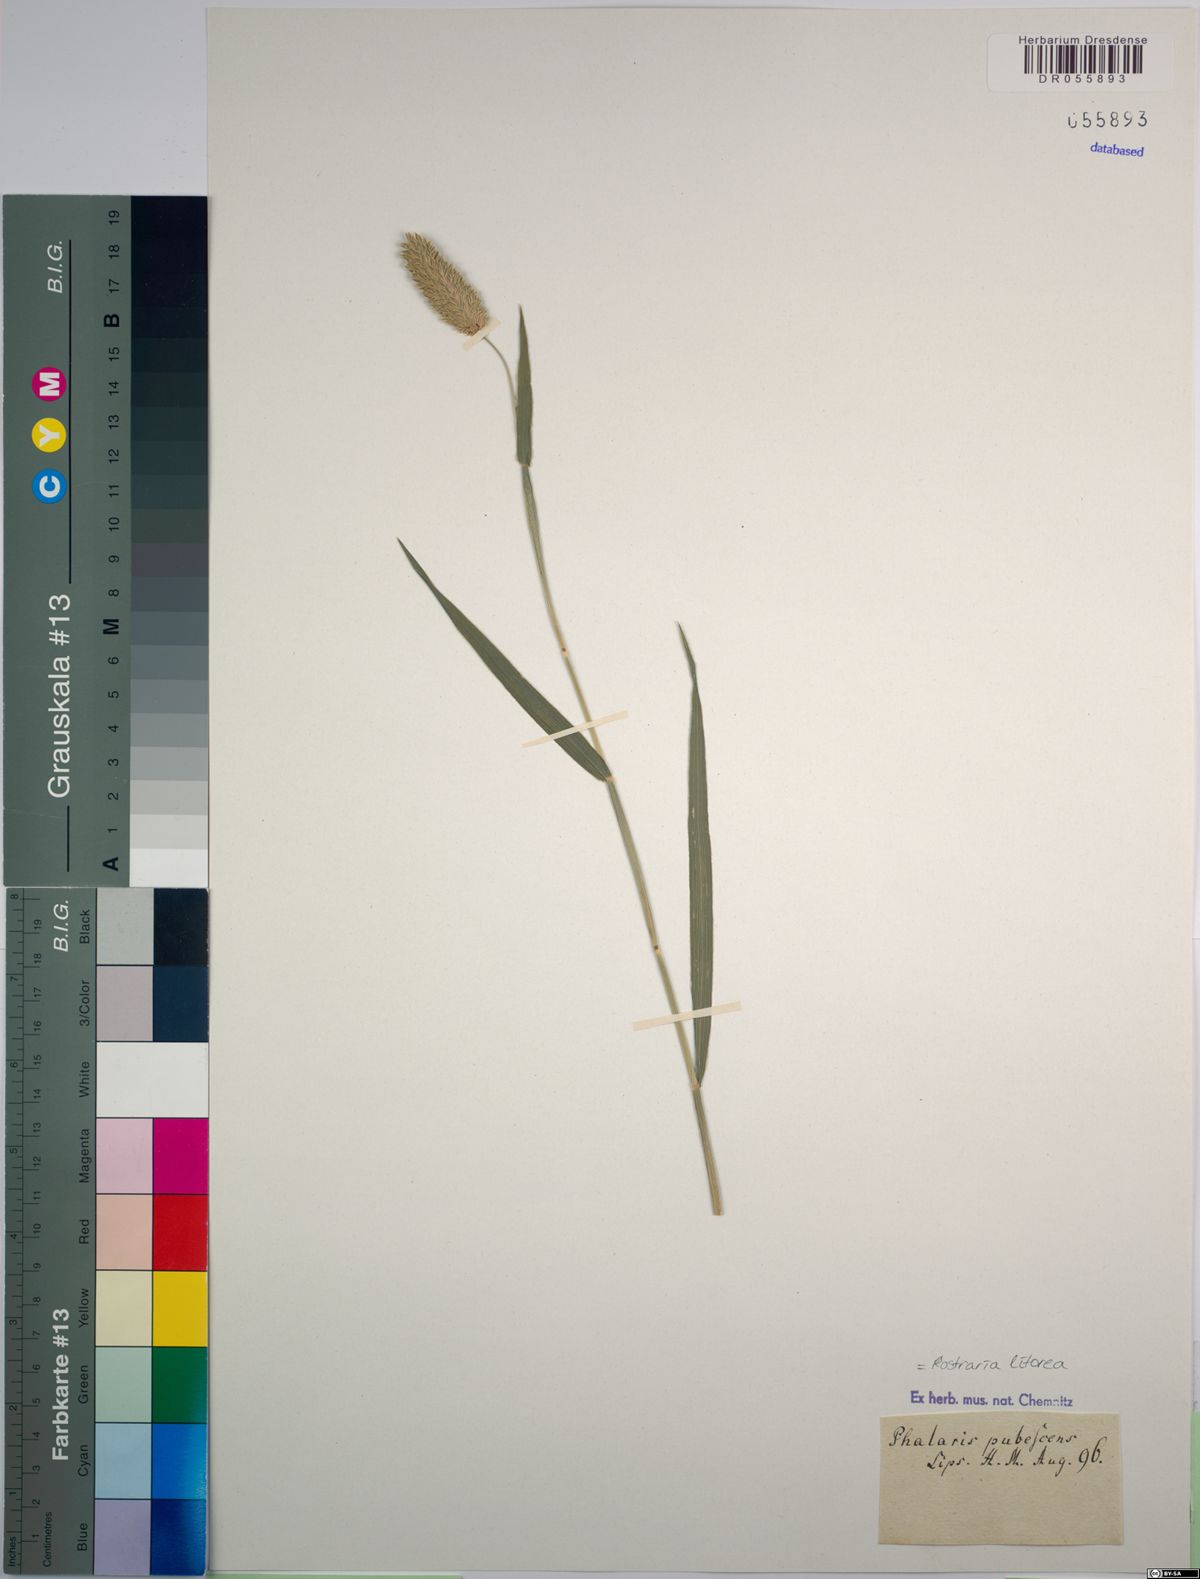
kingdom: Plantae
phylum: Tracheophyta
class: Liliopsida
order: Poales
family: Poaceae
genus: Rostraria
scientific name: Rostraria litorea
